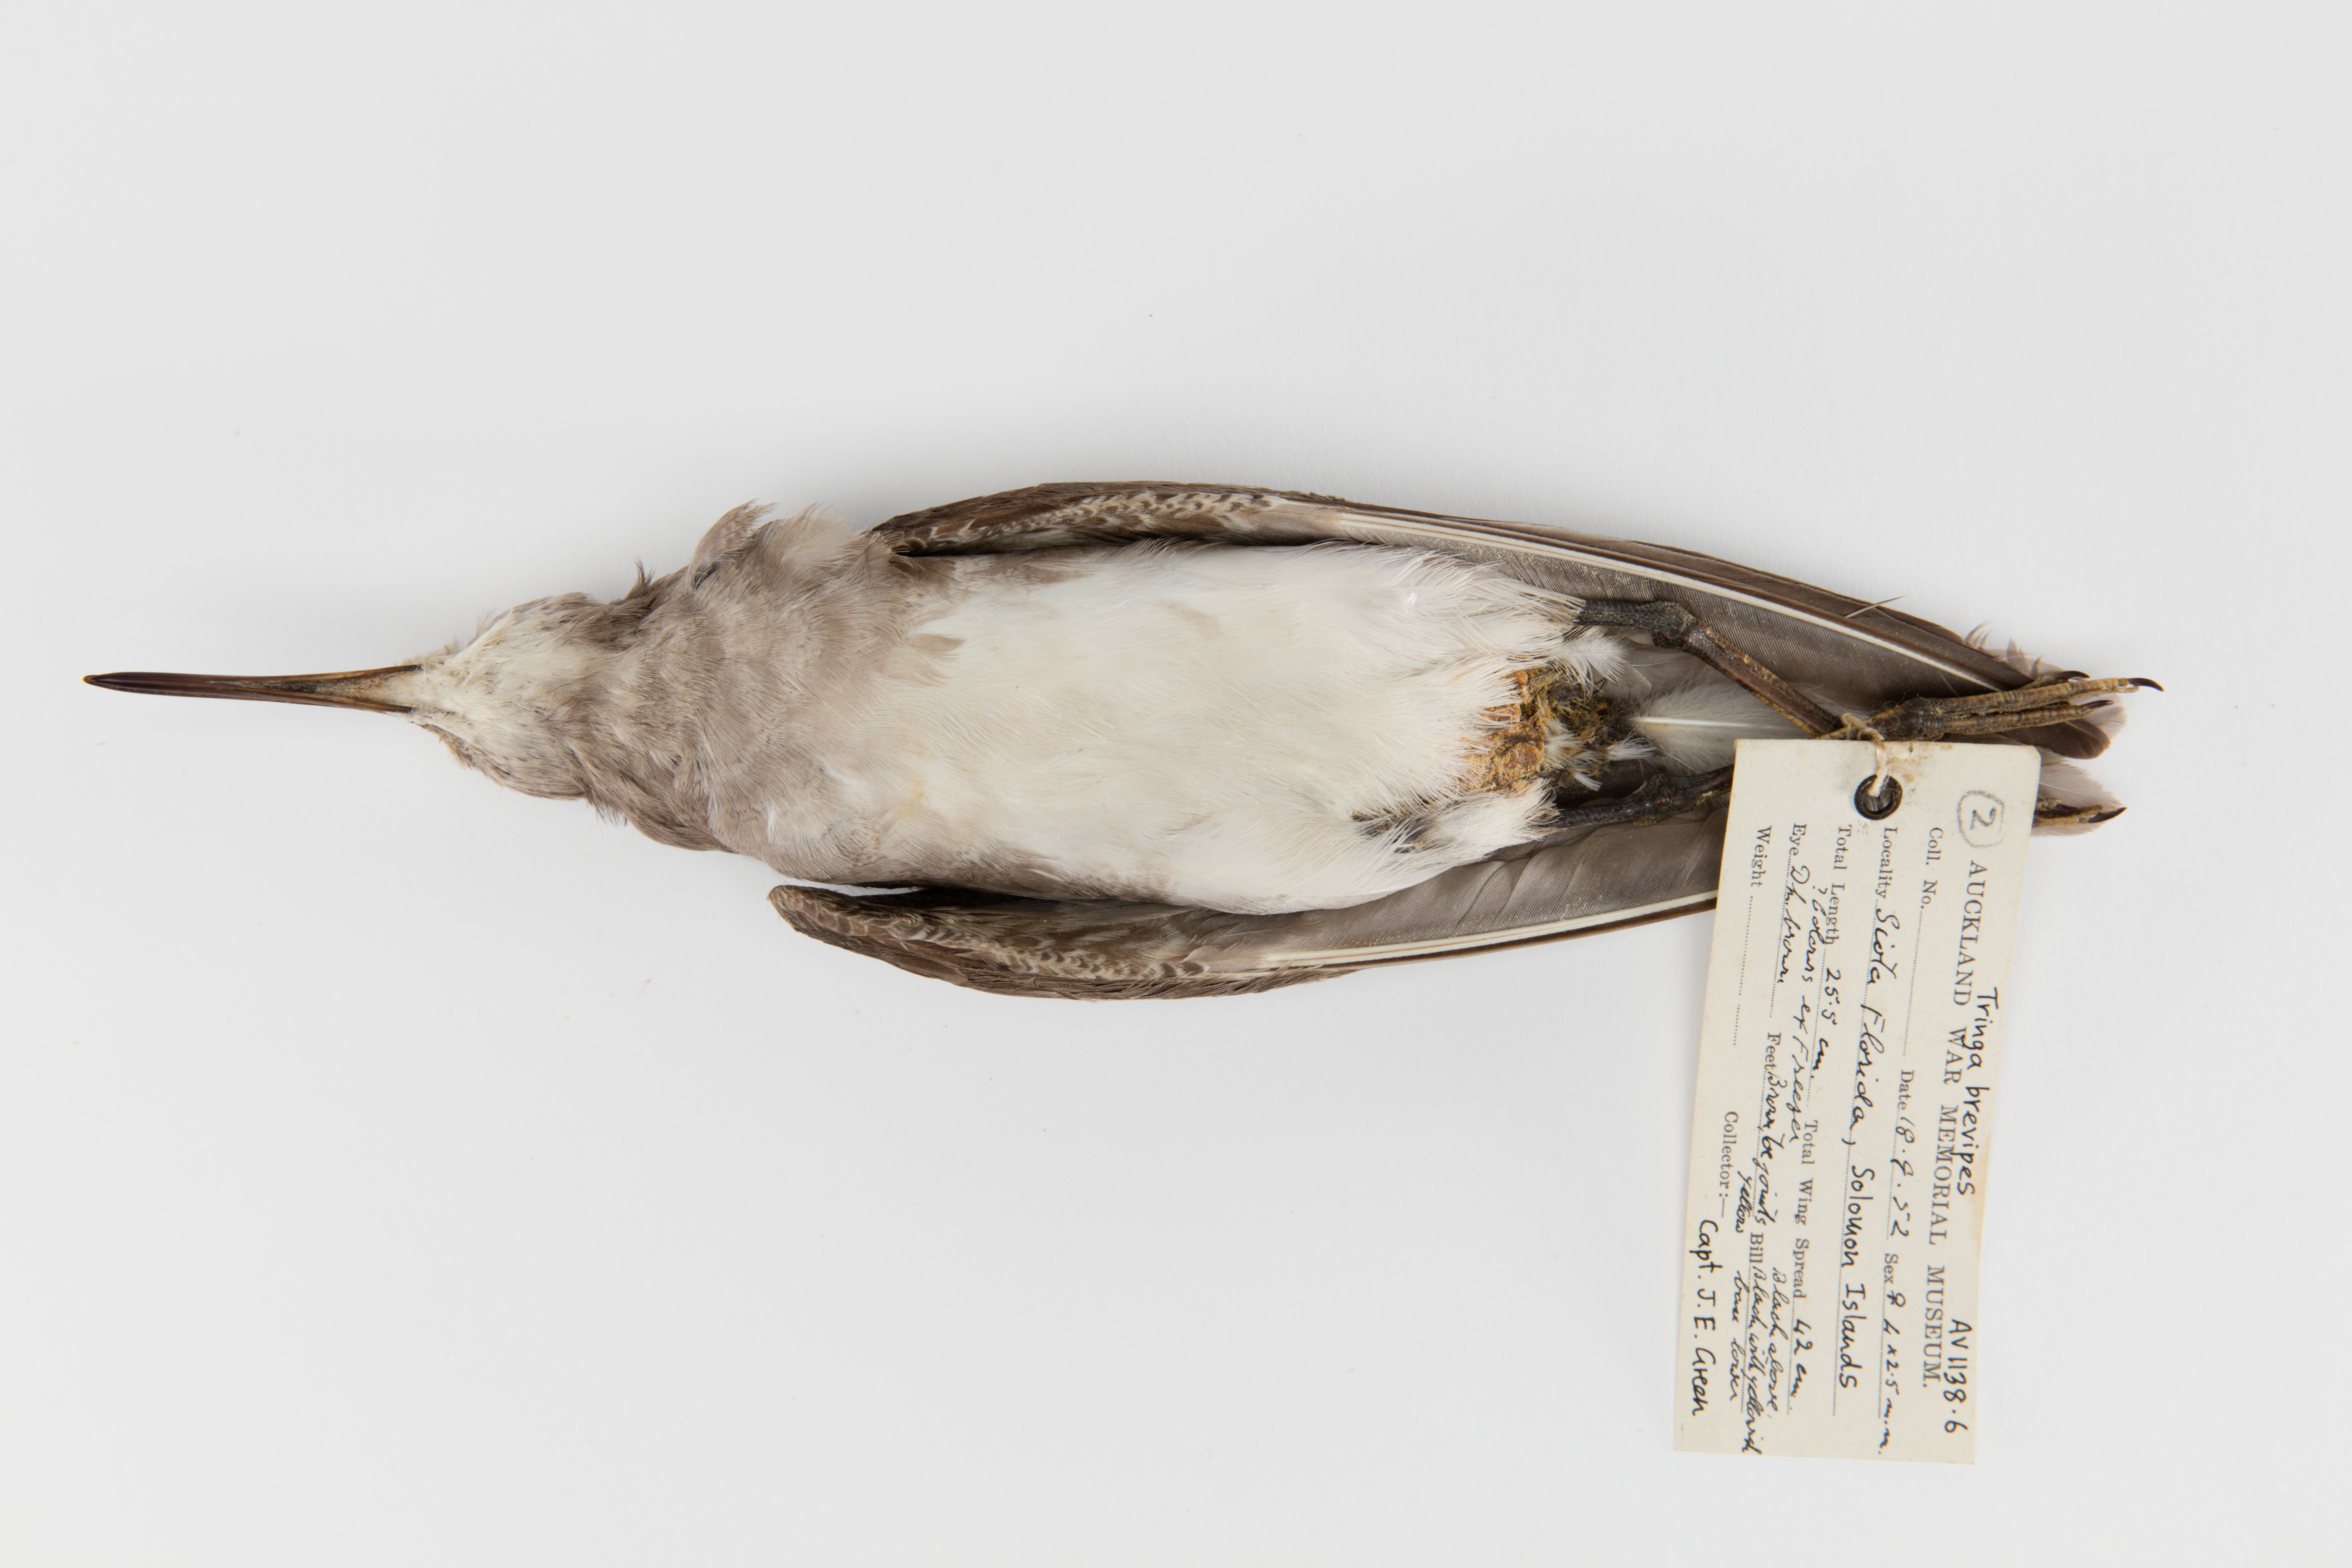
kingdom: Animalia
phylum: Chordata
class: Aves
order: Charadriiformes
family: Scolopacidae
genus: Tringa
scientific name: Tringa brevipes
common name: Grey-tailed tattler
